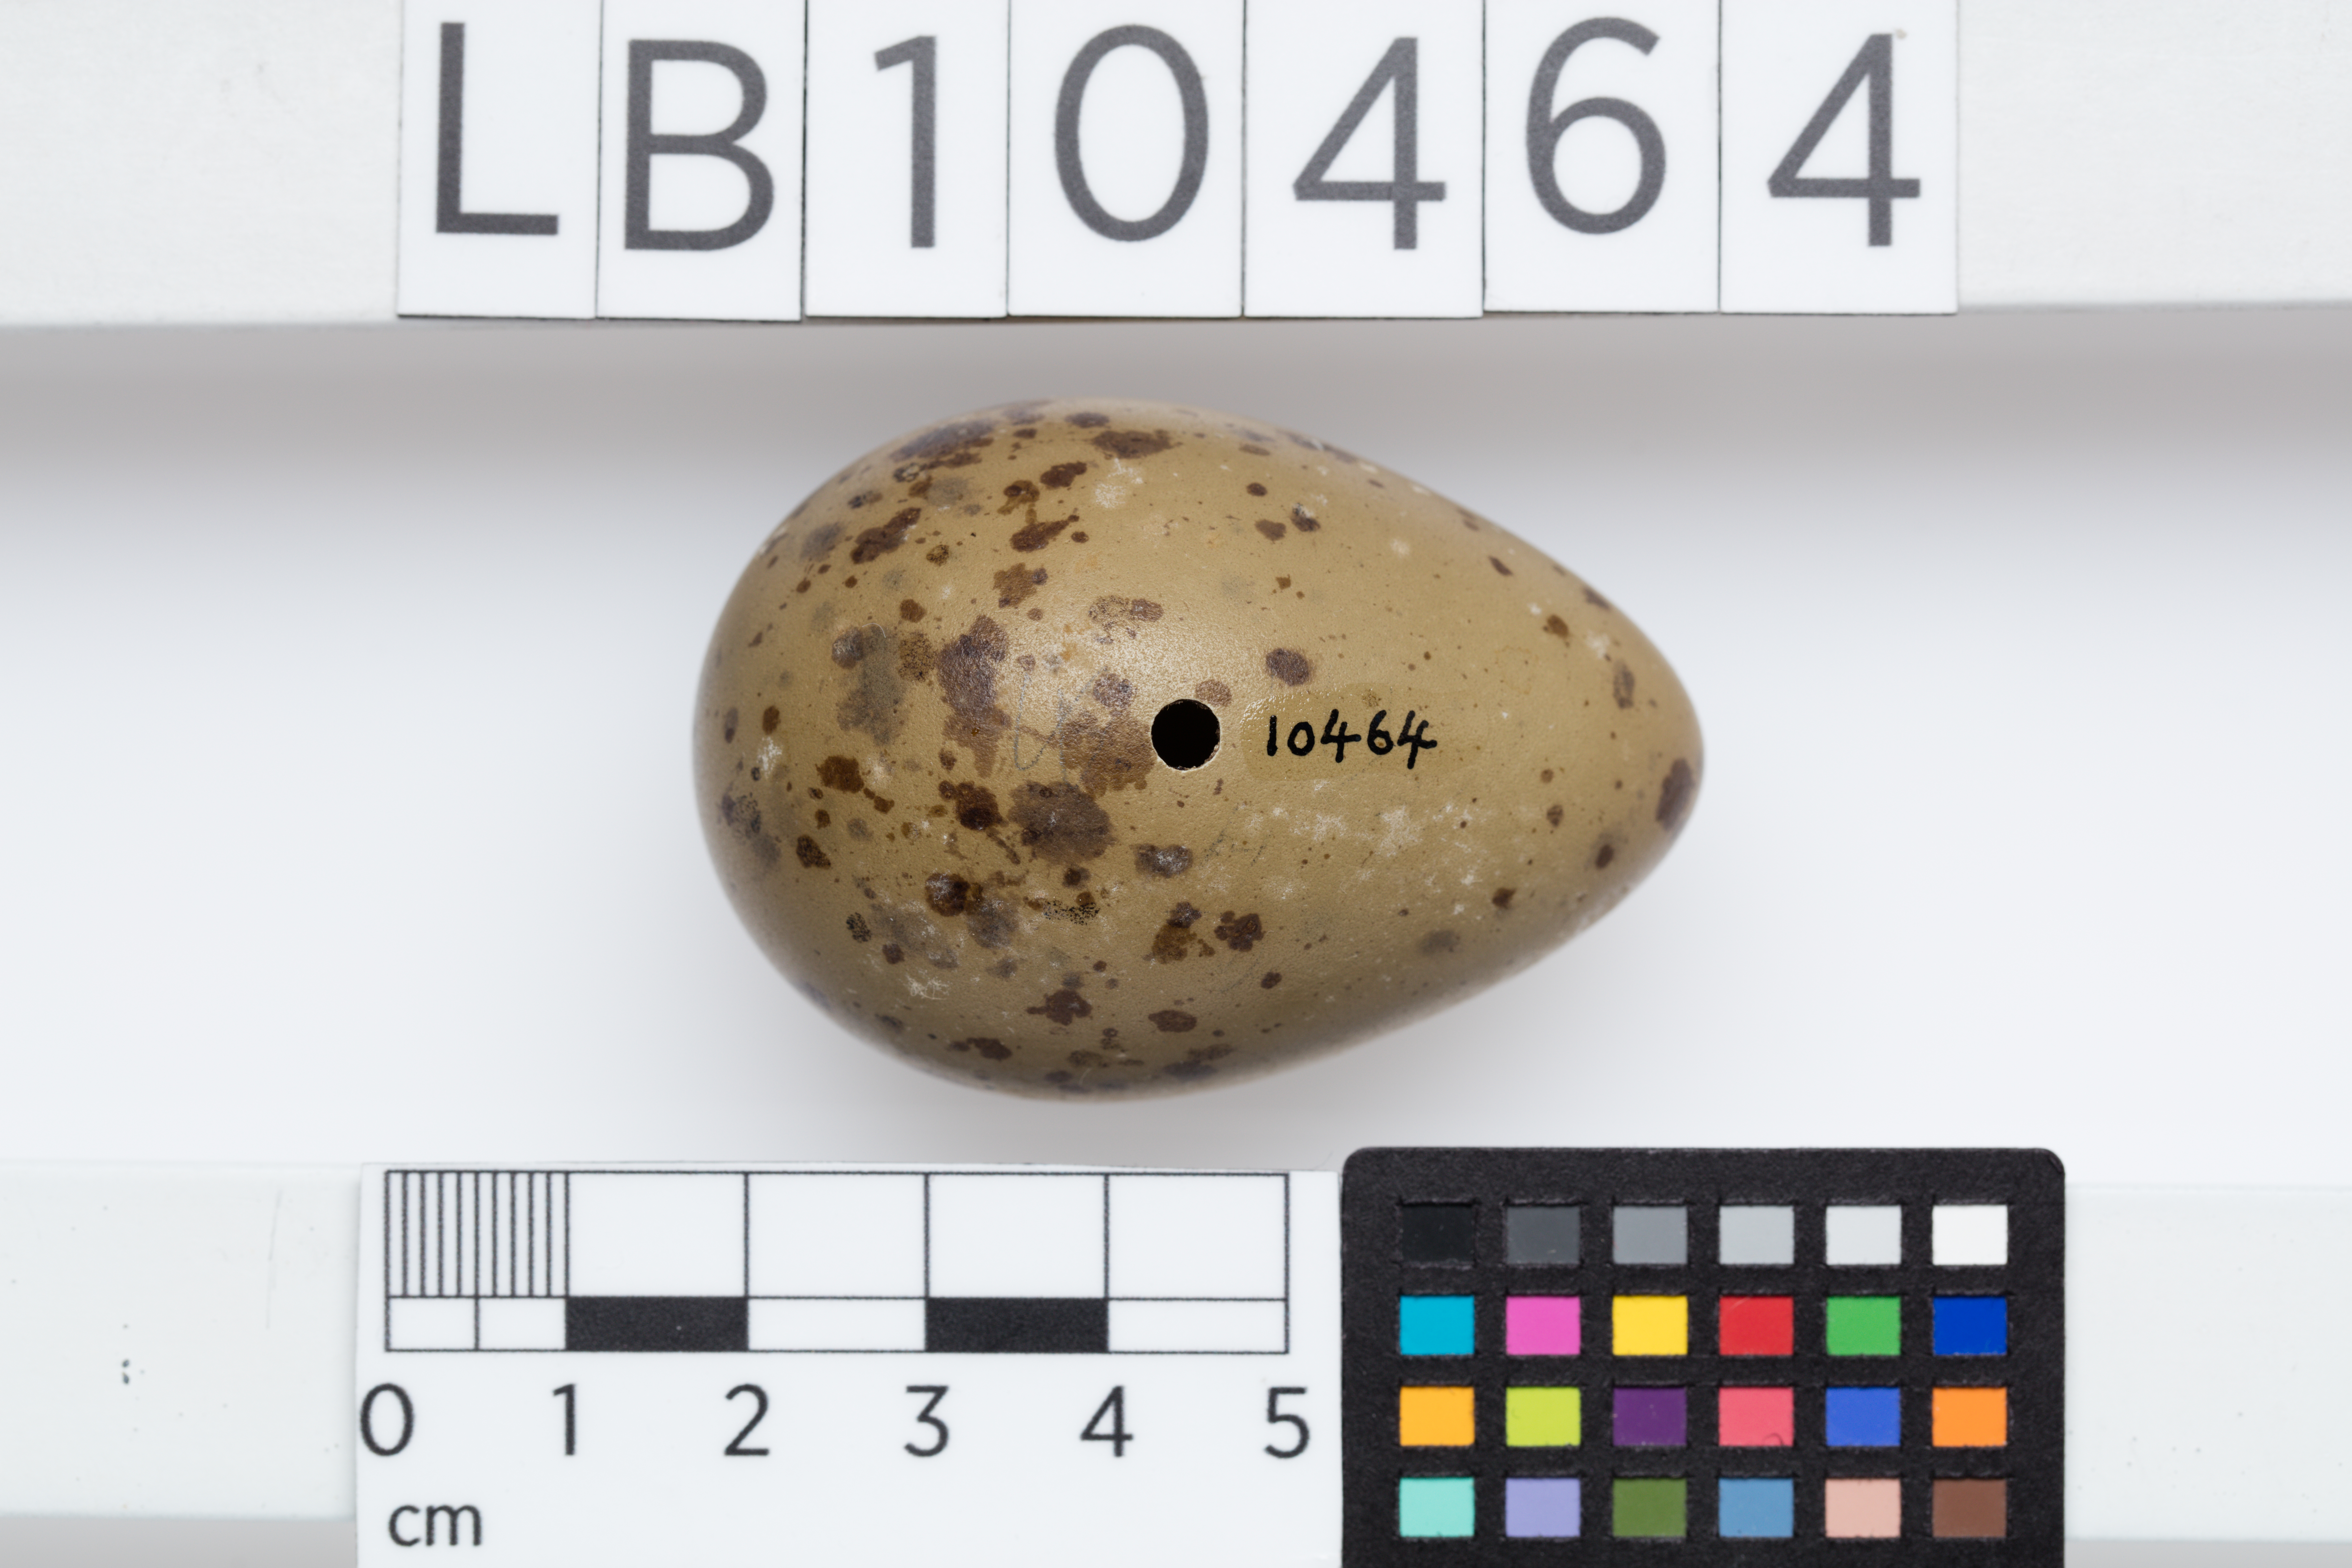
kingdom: Animalia
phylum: Chordata
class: Aves
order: Charadriiformes
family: Stercorariidae
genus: Stercorarius
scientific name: Stercorarius parasiticus
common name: Parasitic jaeger
